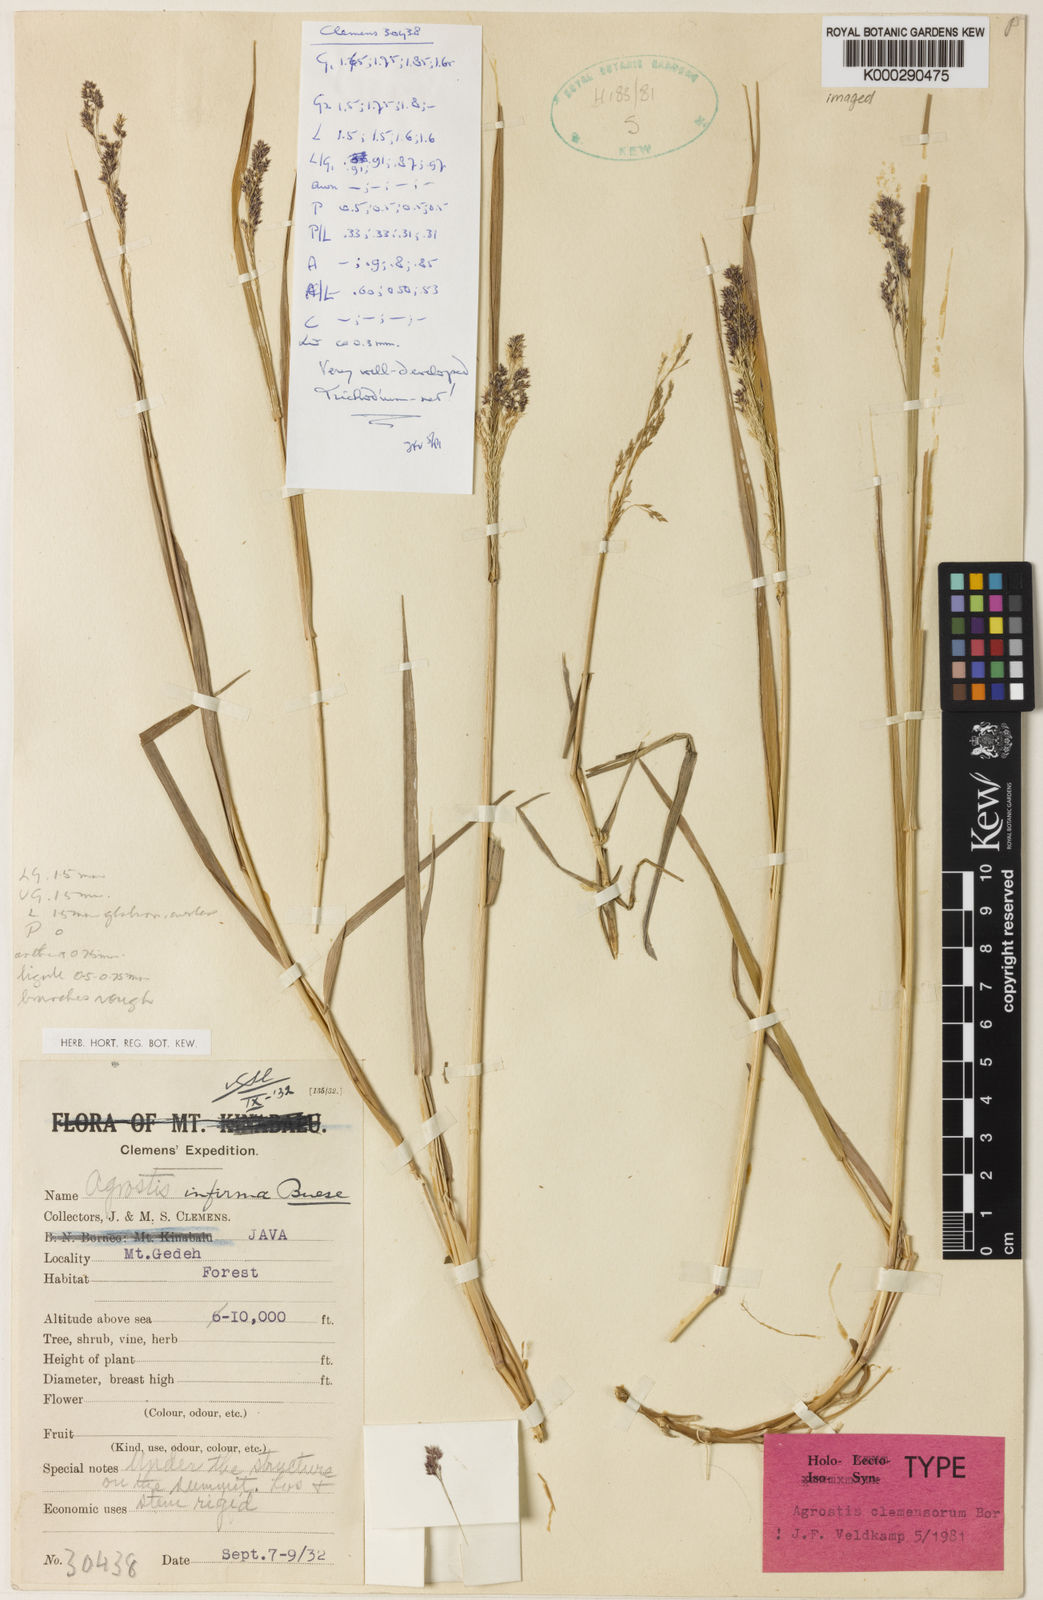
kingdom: Plantae
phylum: Tracheophyta
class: Liliopsida
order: Poales
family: Poaceae
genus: Agrostis
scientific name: Agrostis
